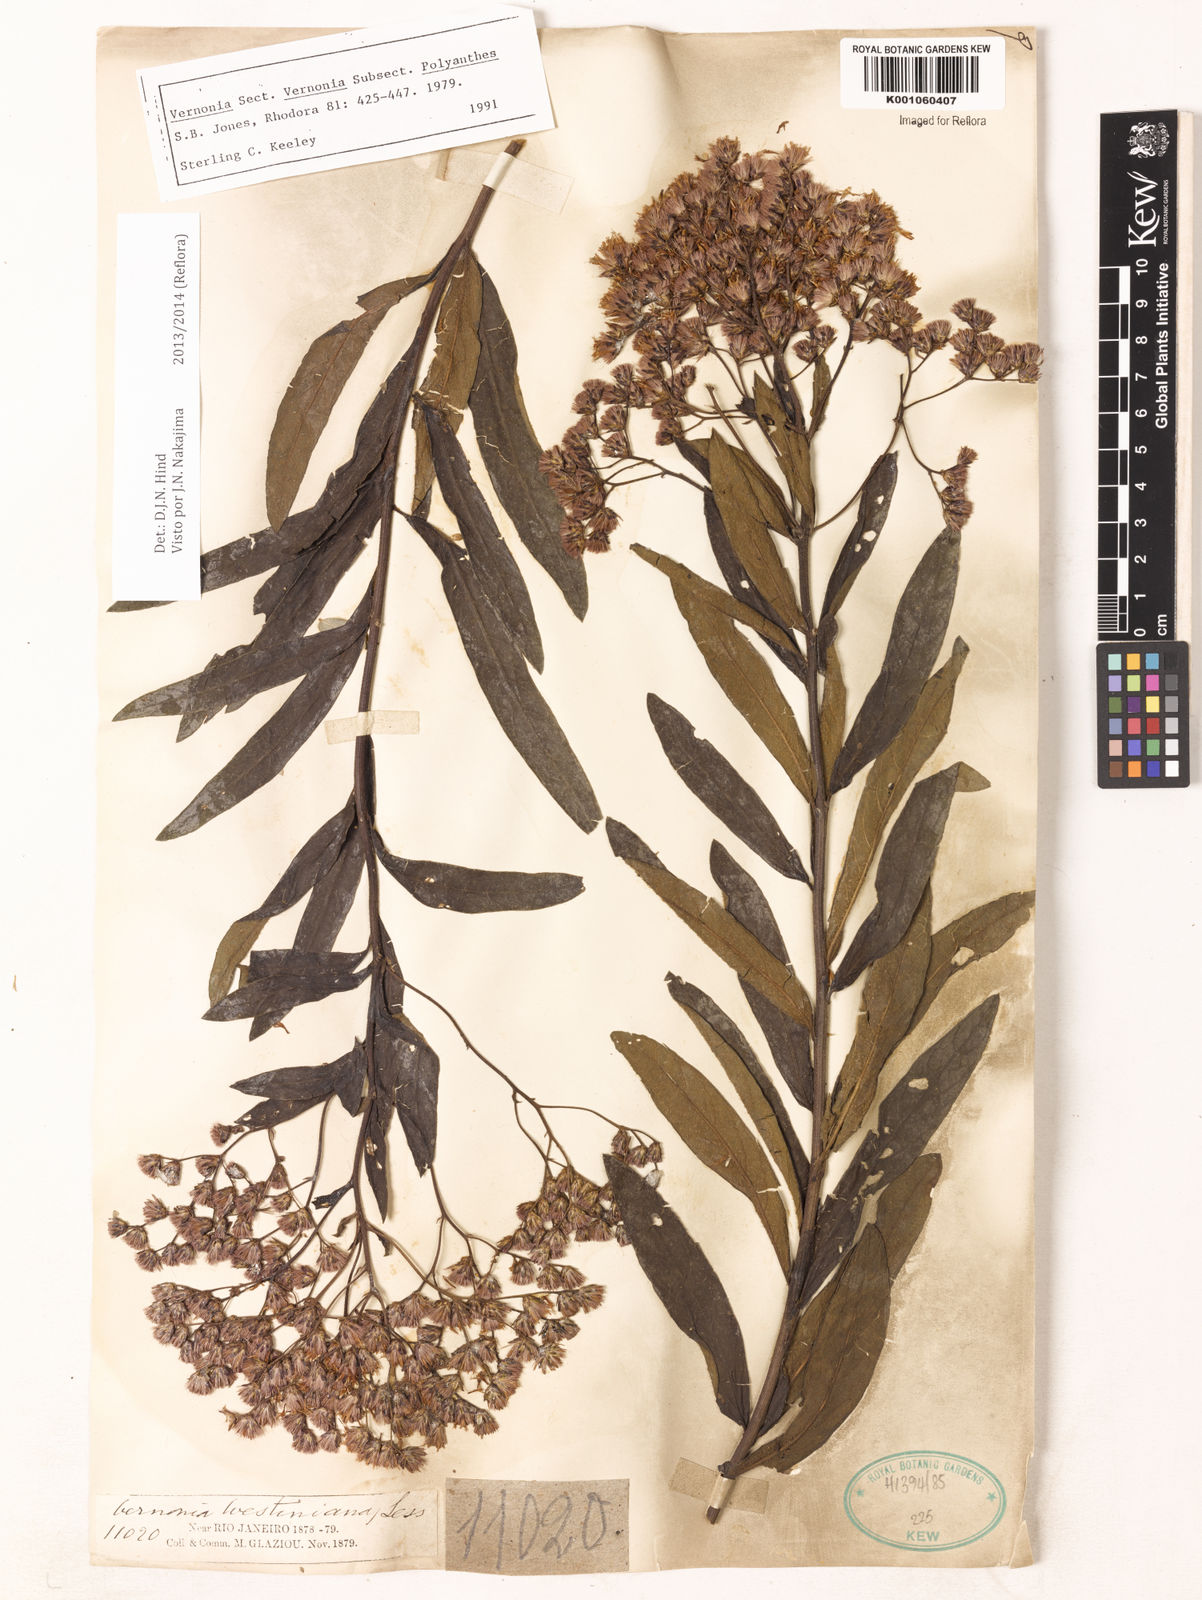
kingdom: Plantae
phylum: Tracheophyta
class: Magnoliopsida
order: Asterales
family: Asteraceae
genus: Vernonanthura
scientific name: Vernonanthura westiniana
